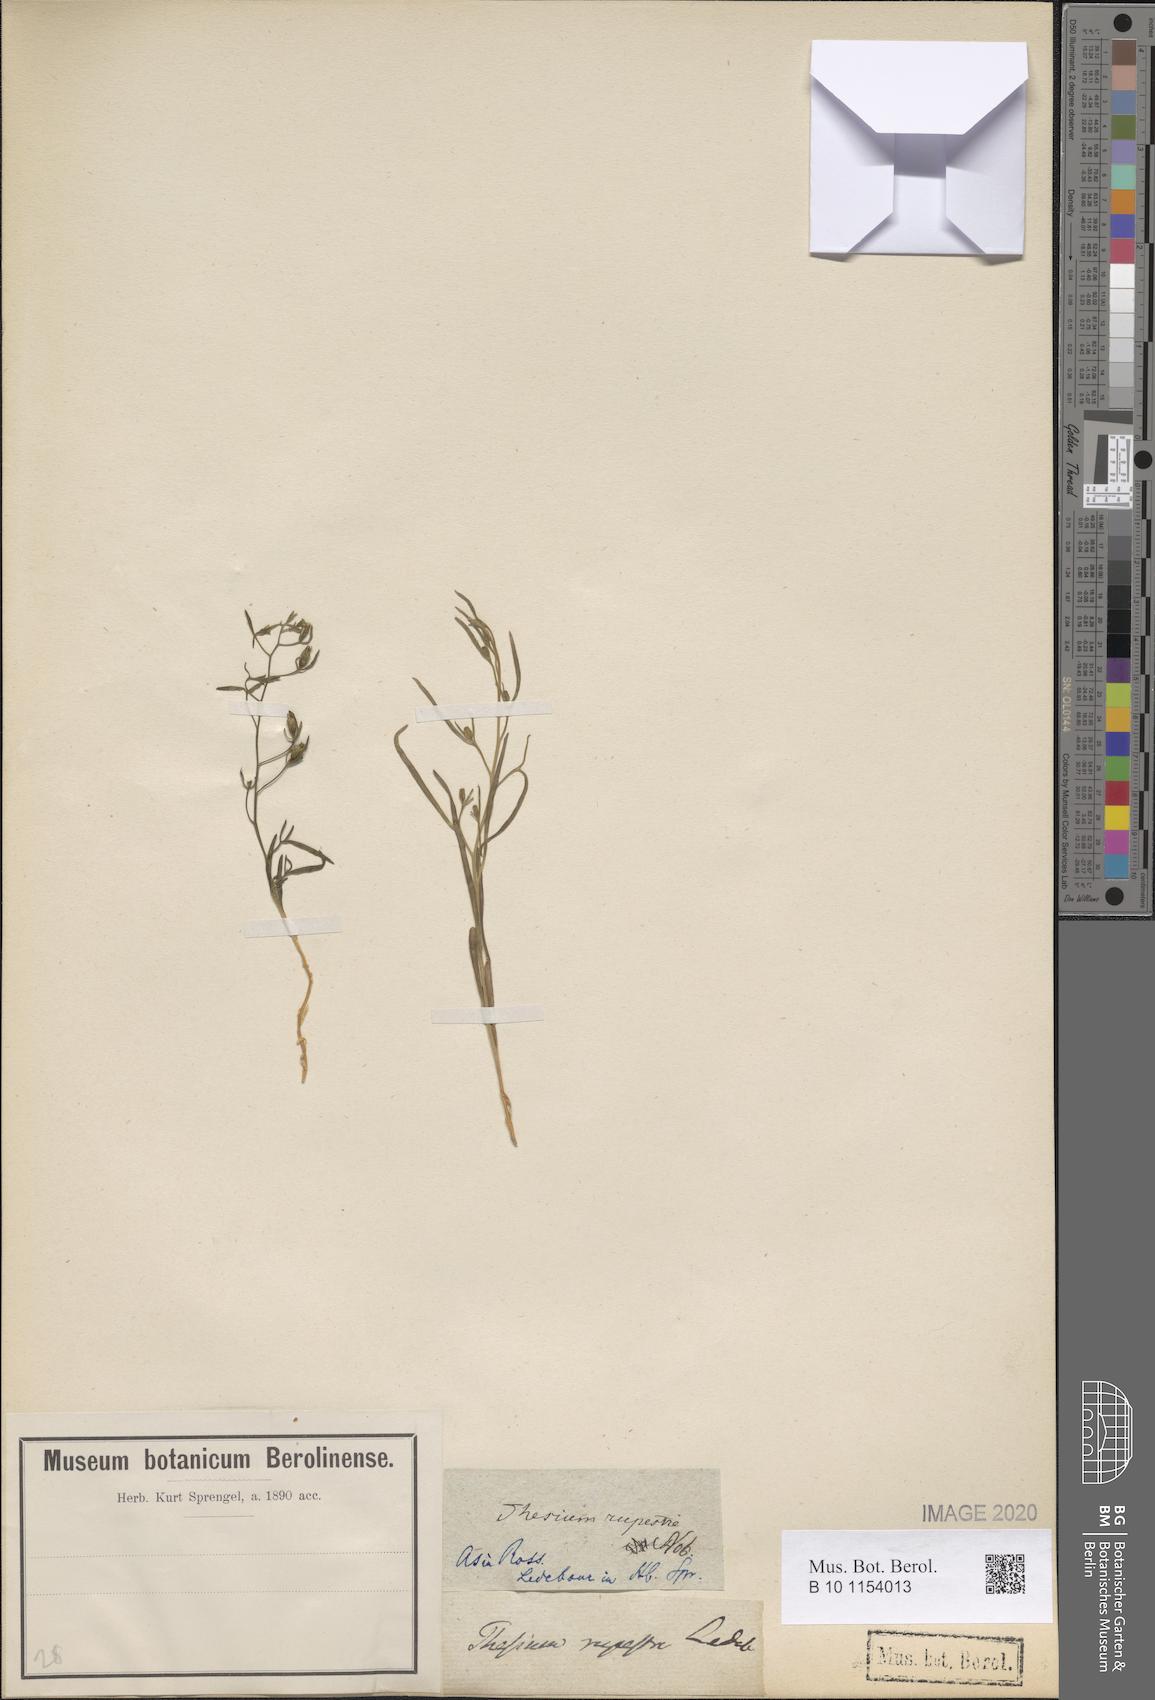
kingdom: Plantae
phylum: Tracheophyta
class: Magnoliopsida
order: Santalales
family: Thesiaceae
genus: Thesium
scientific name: Thesium rupestre
